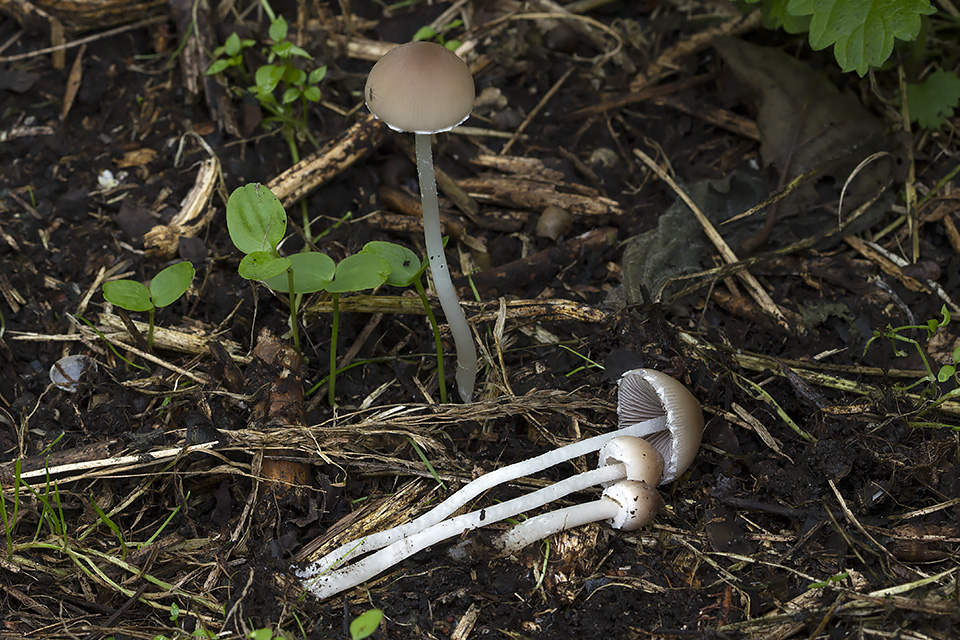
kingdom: Fungi
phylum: Basidiomycota
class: Agaricomycetes
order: Agaricales
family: Psathyrellaceae
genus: Coprinopsis
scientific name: Coprinopsis marcescibilis
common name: ruderat-blækhat
